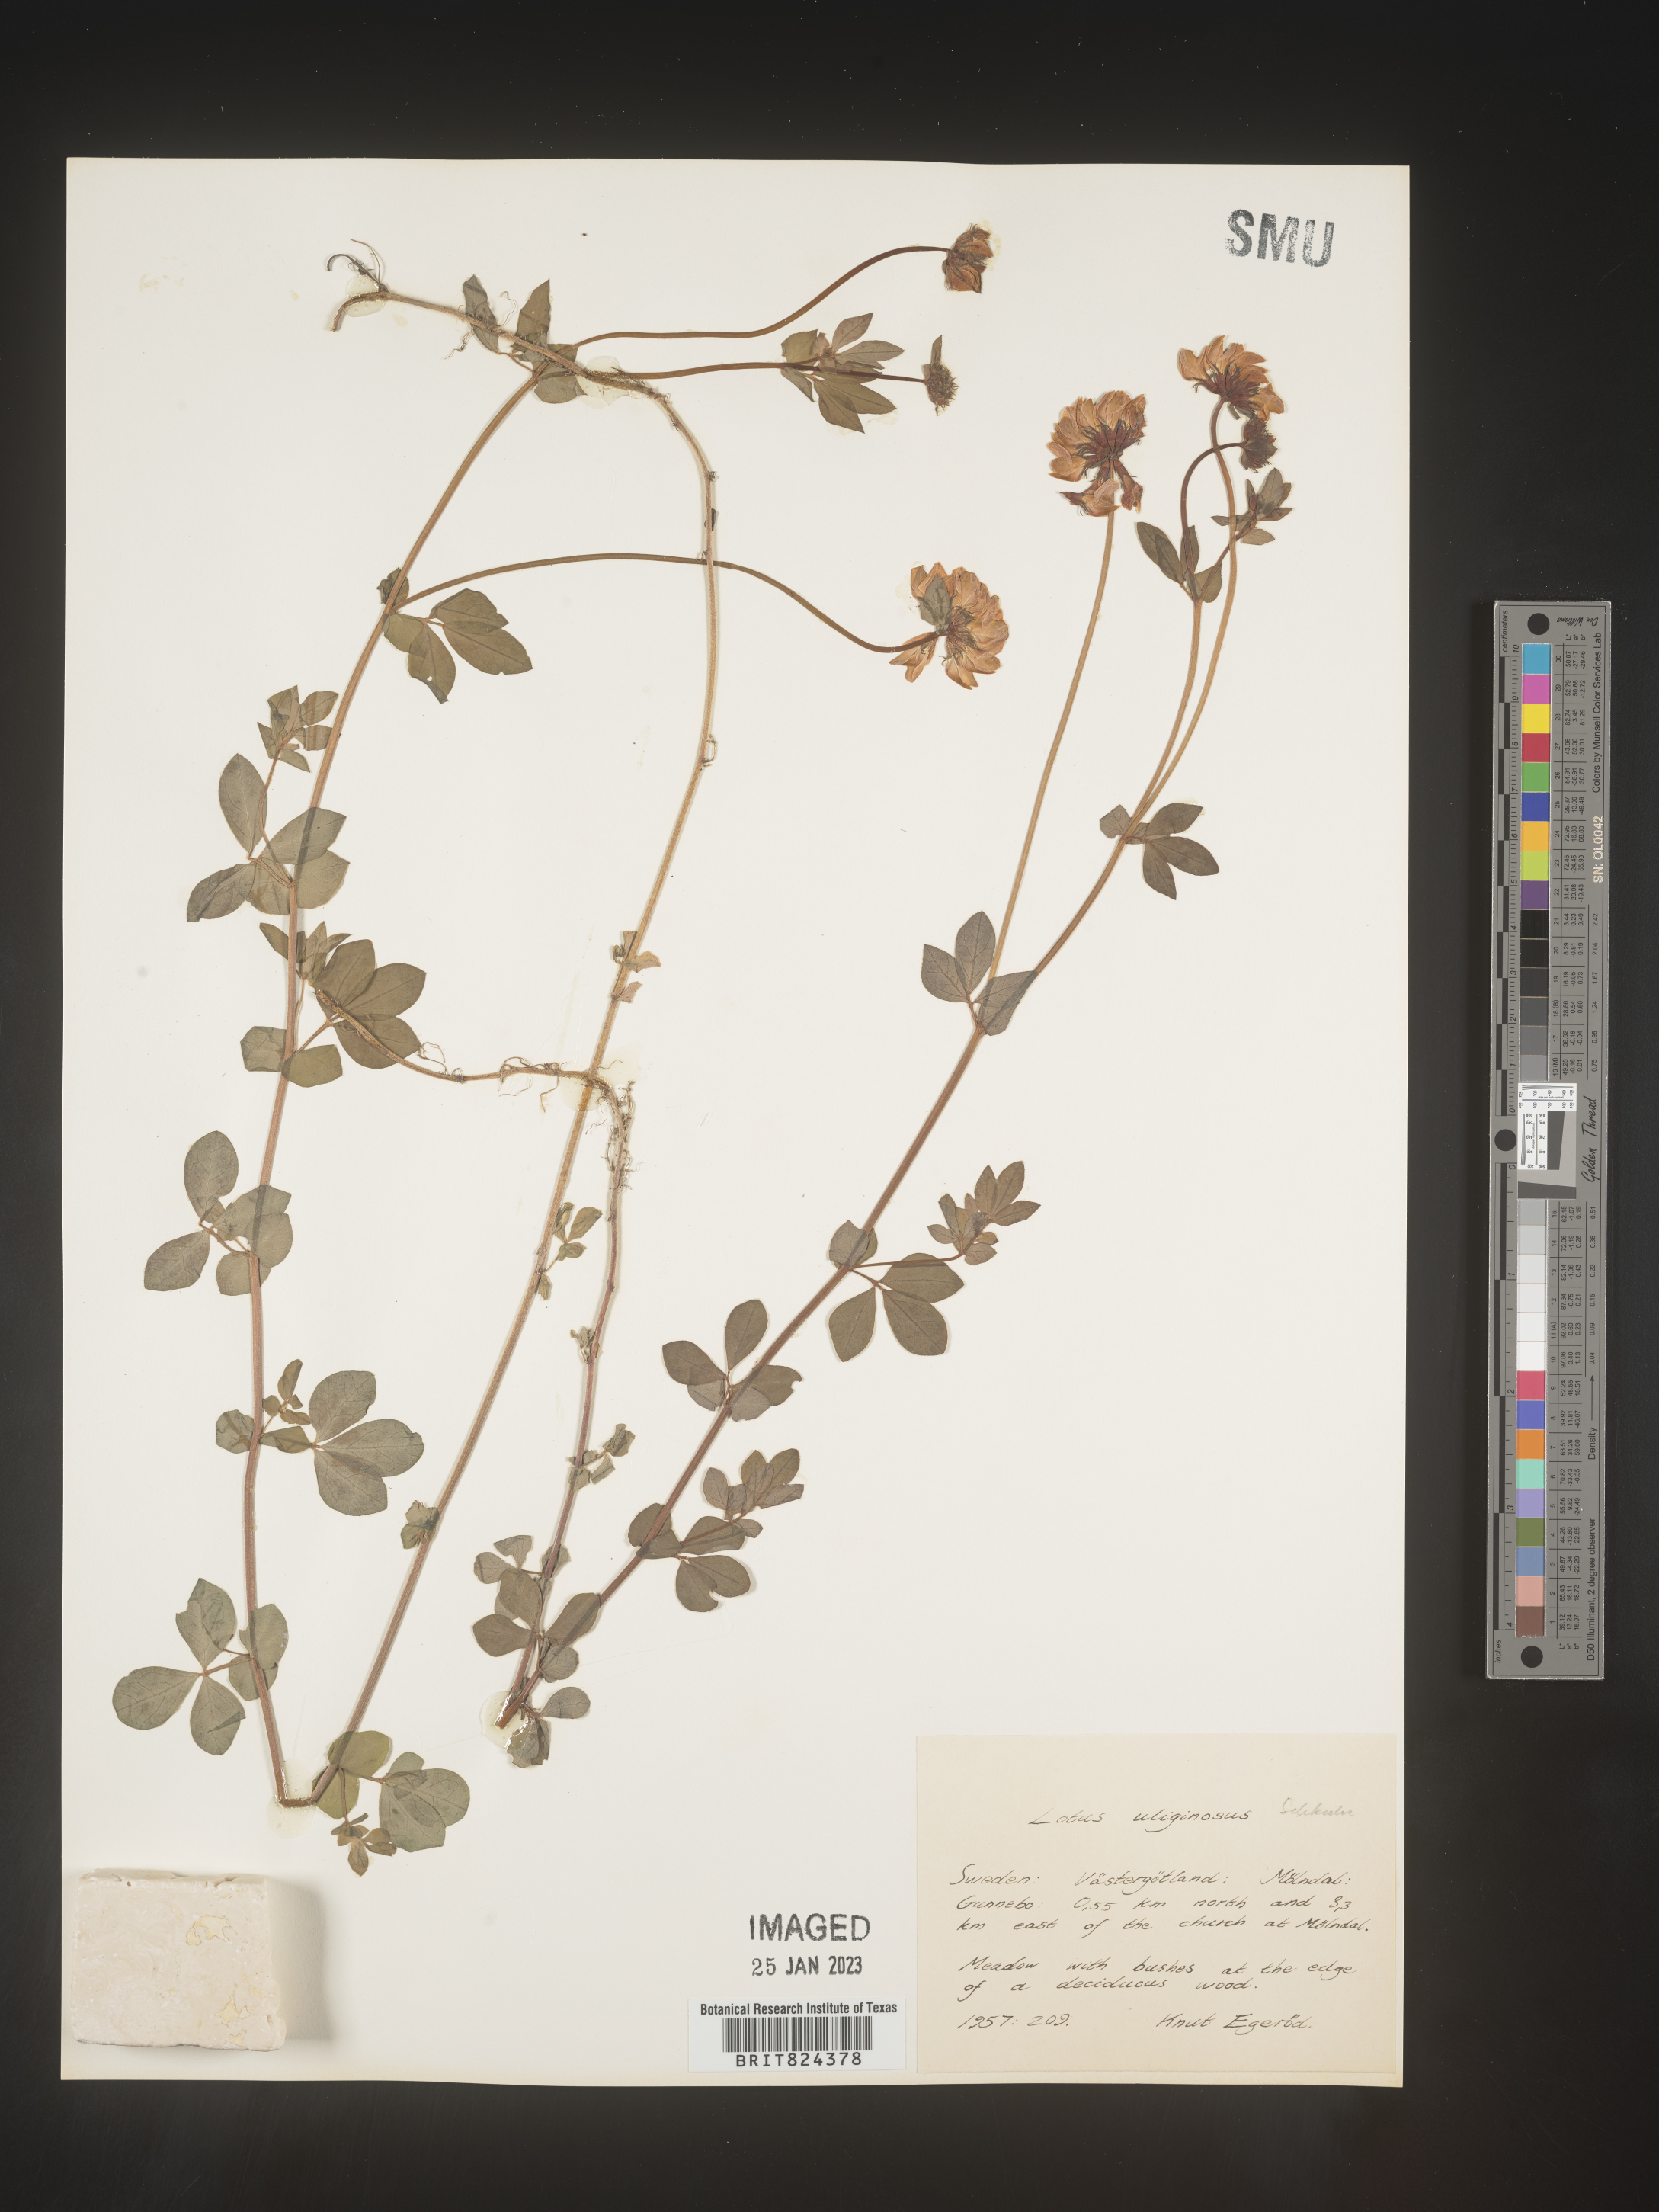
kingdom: Plantae
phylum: Tracheophyta
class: Magnoliopsida
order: Fabales
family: Fabaceae
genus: Lotus
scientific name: Lotus
